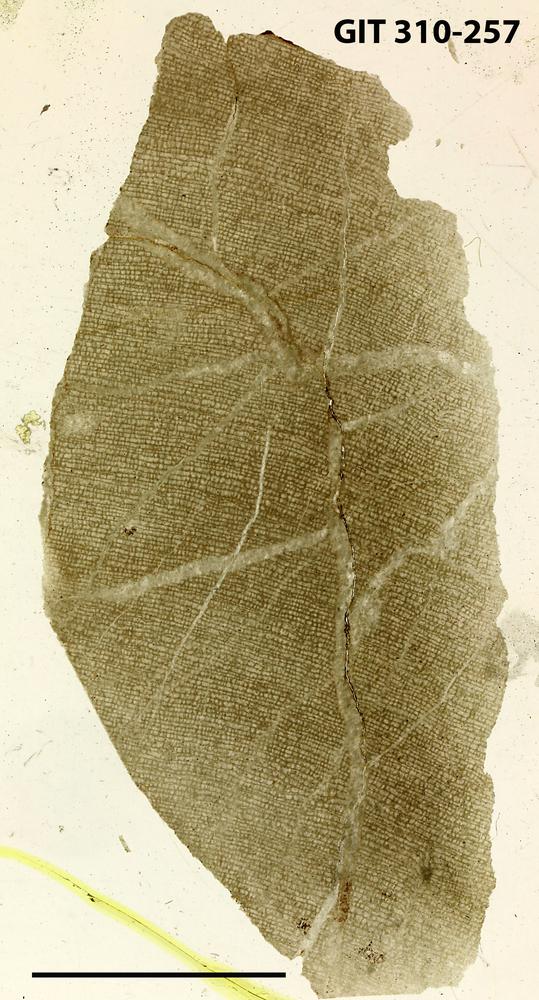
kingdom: Animalia
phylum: Porifera
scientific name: Porifera
